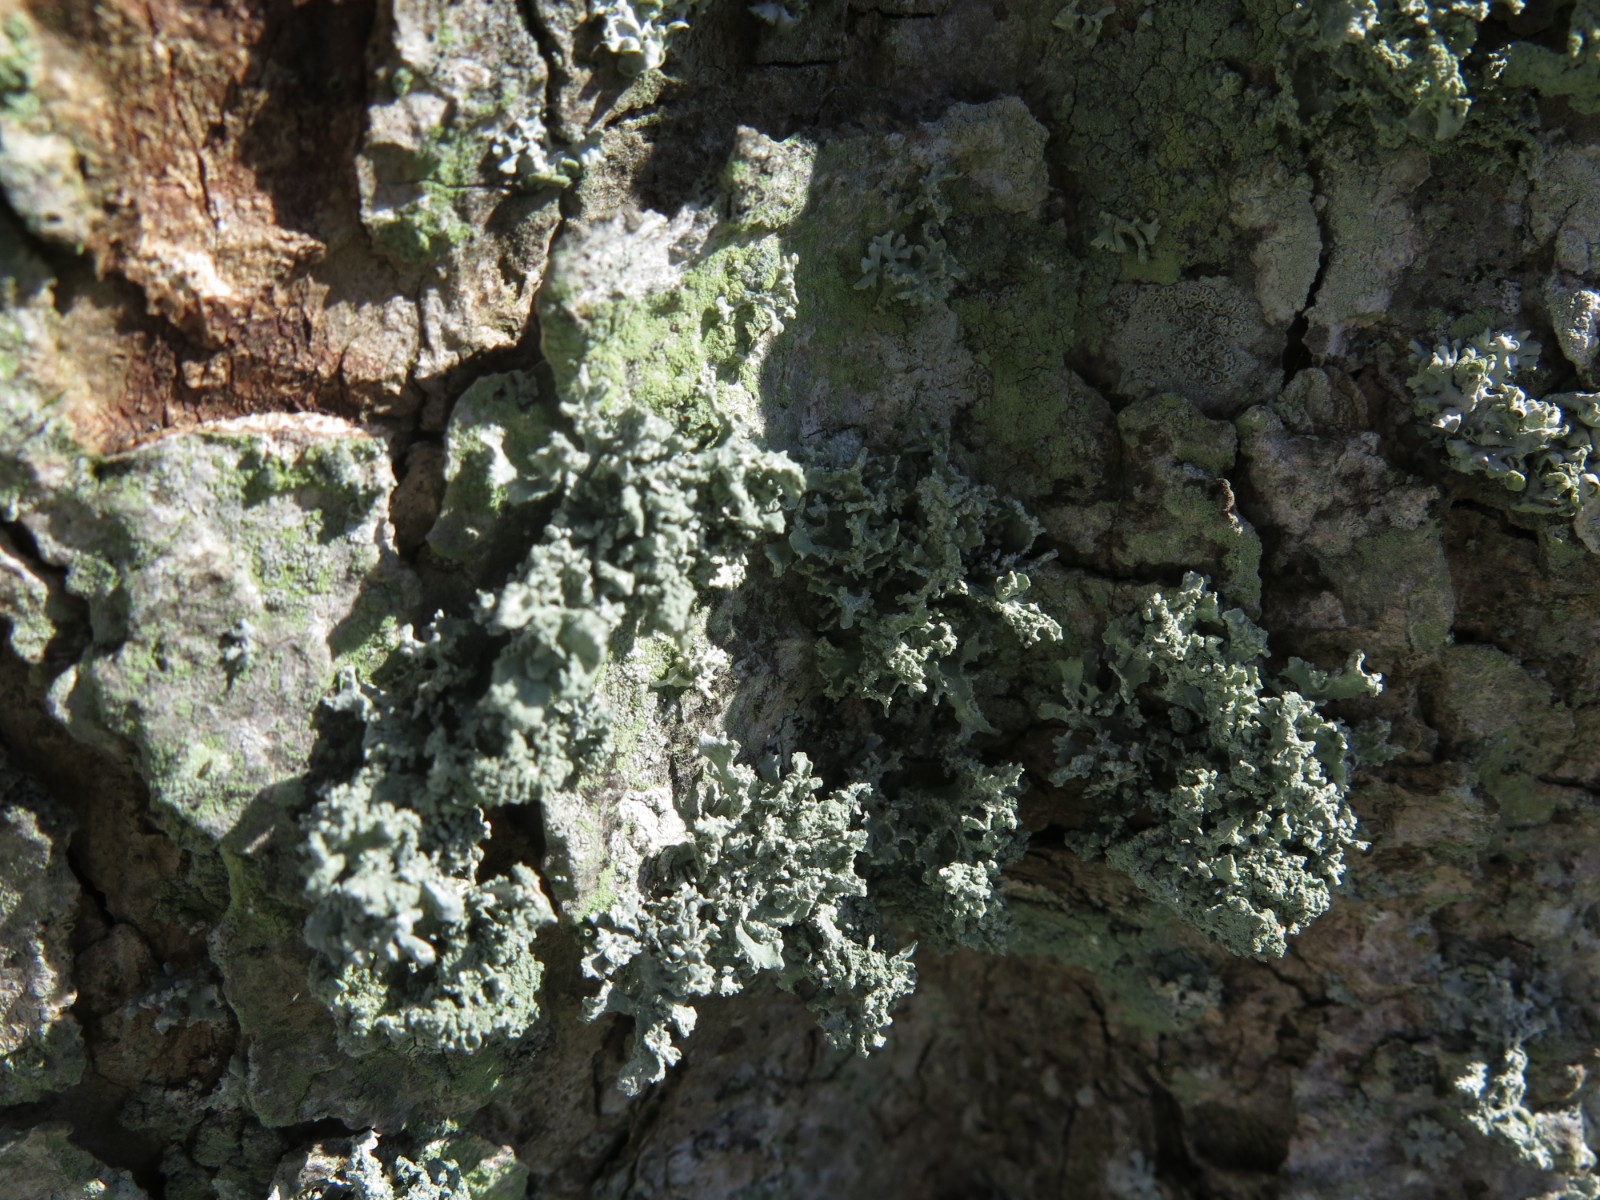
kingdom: Fungi
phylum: Ascomycota
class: Lecanoromycetes
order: Lecanorales
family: Parmeliaceae
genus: Evernia
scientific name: Evernia prunastri
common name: almindelig slåenlav
